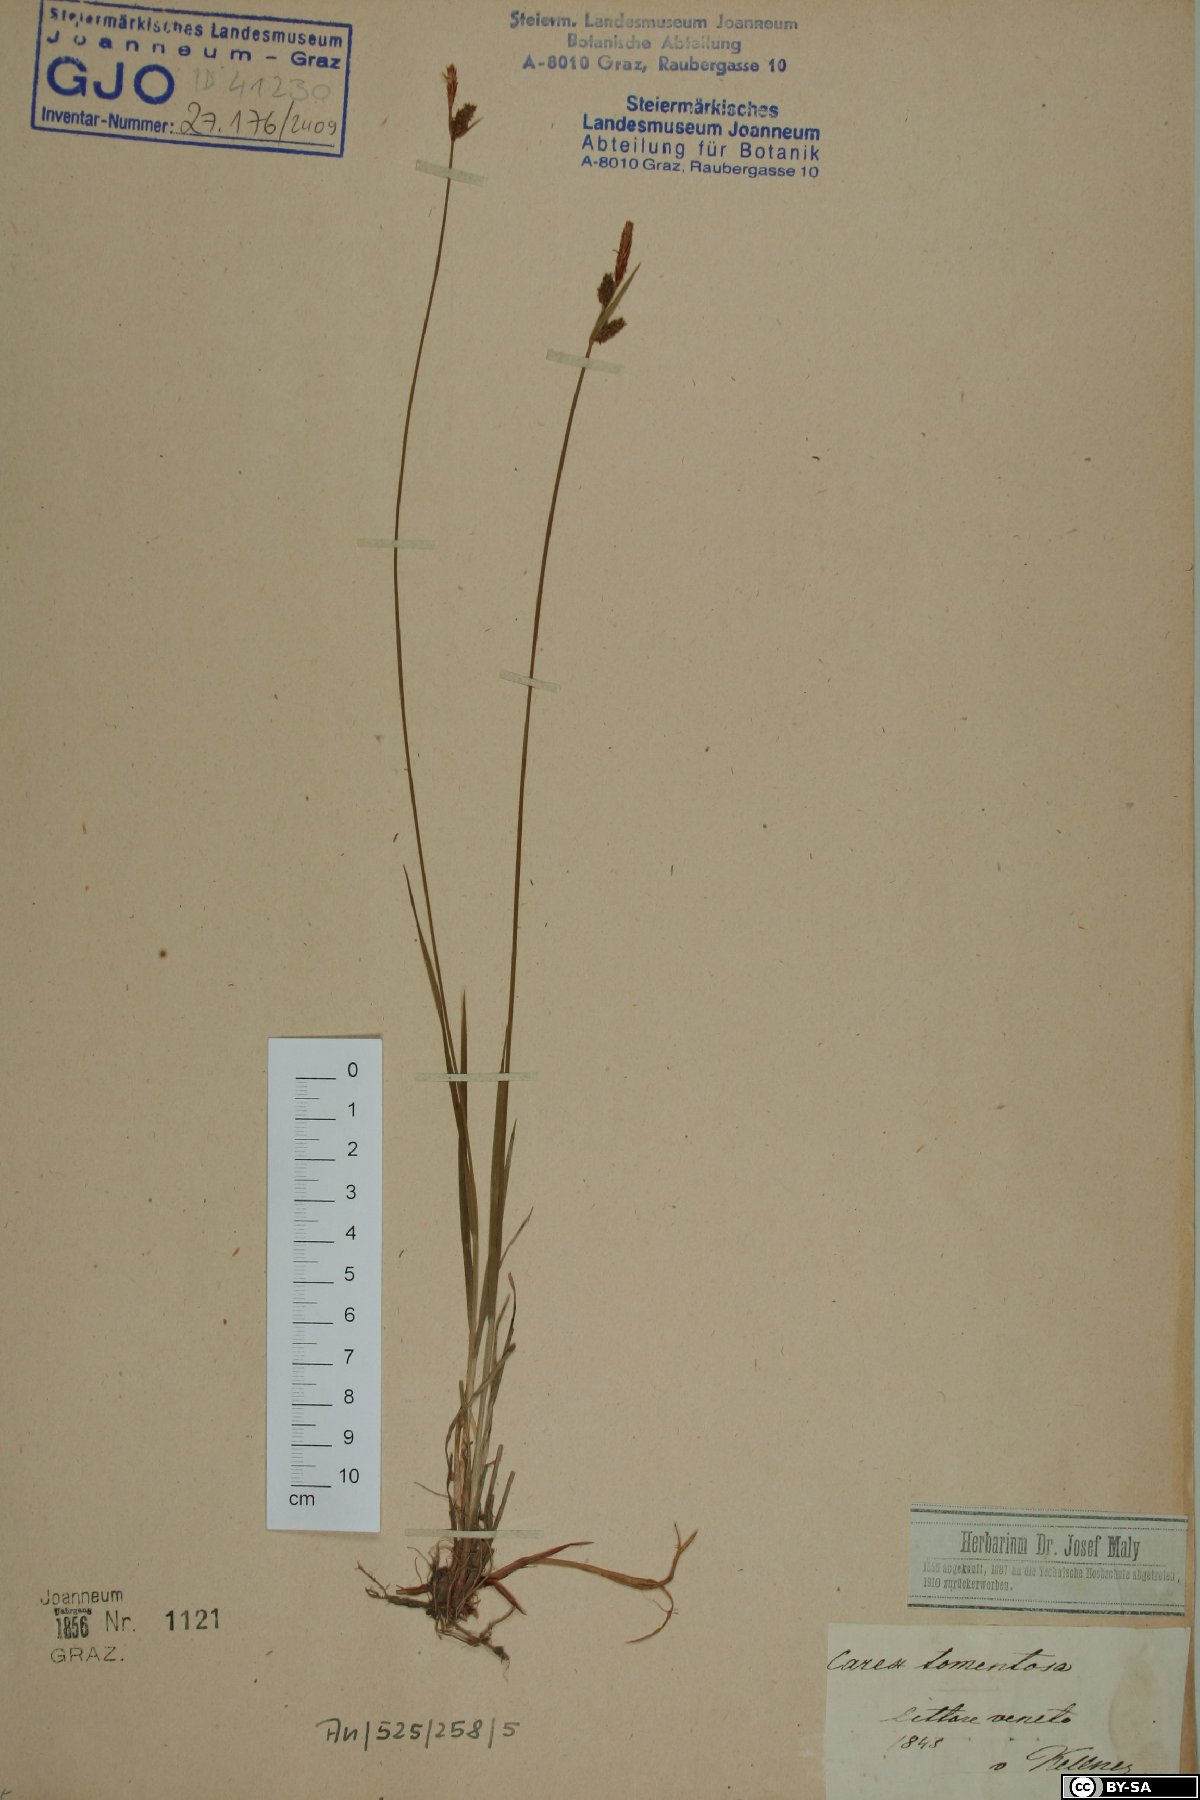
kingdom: Plantae
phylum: Tracheophyta
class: Liliopsida
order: Poales
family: Cyperaceae
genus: Carex
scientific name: Carex tomentosa
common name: Downy-fruited sedge
